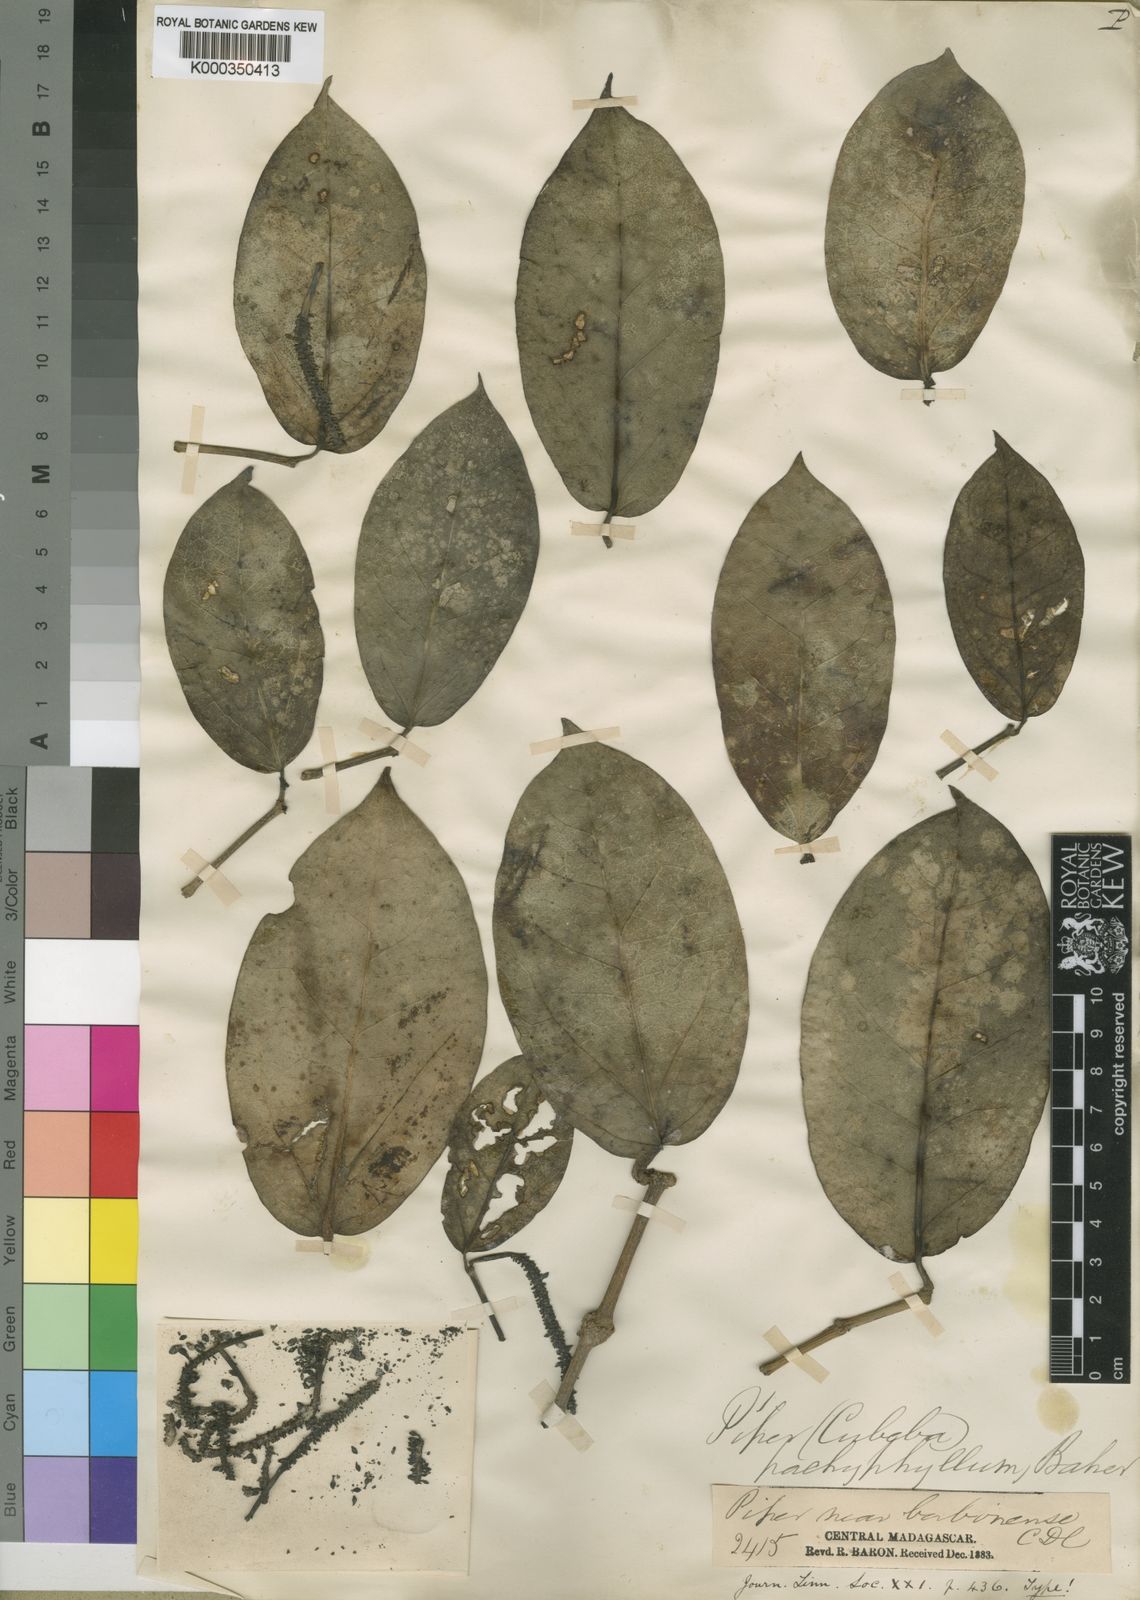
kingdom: Plantae
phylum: Tracheophyta
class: Magnoliopsida
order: Piperales
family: Piperaceae
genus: Piper
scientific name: Piper pachyphyllum
